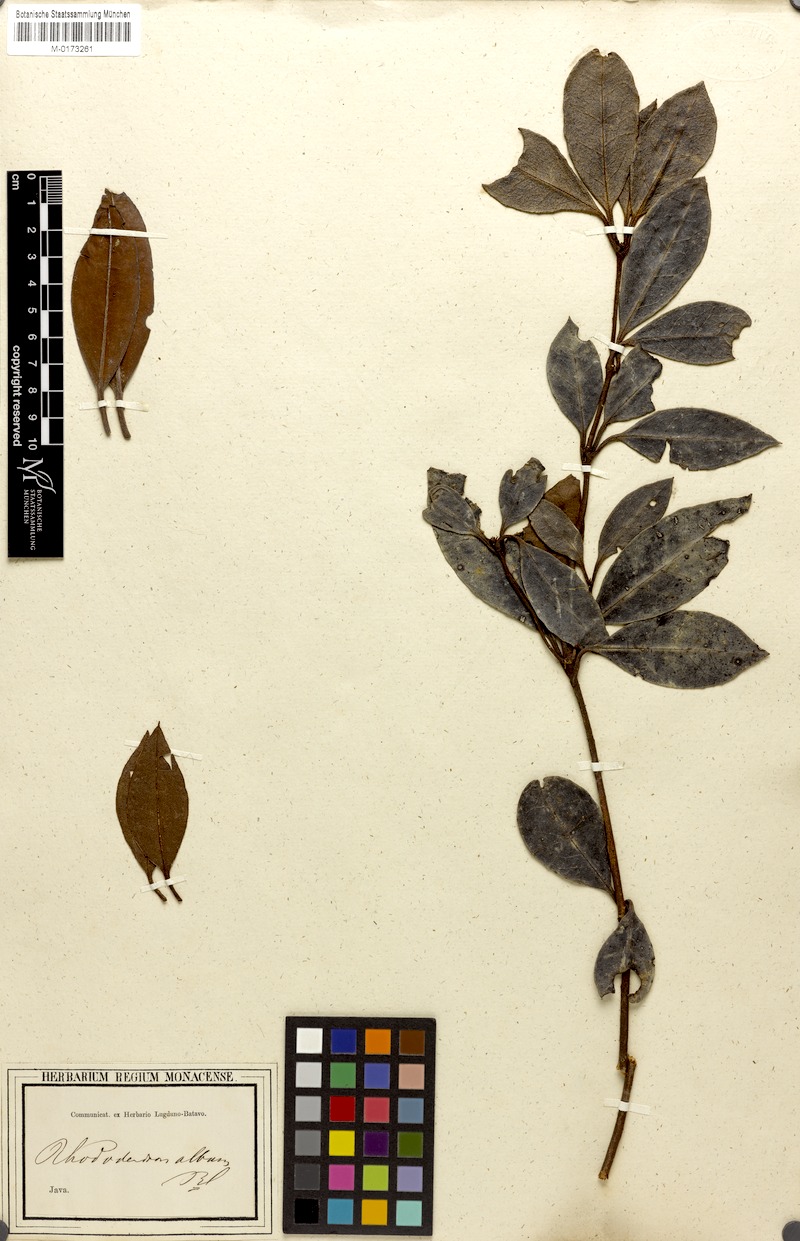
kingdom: Plantae
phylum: Tracheophyta
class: Magnoliopsida
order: Ericales
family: Ericaceae
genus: Rhododendron
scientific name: Rhododendron album
